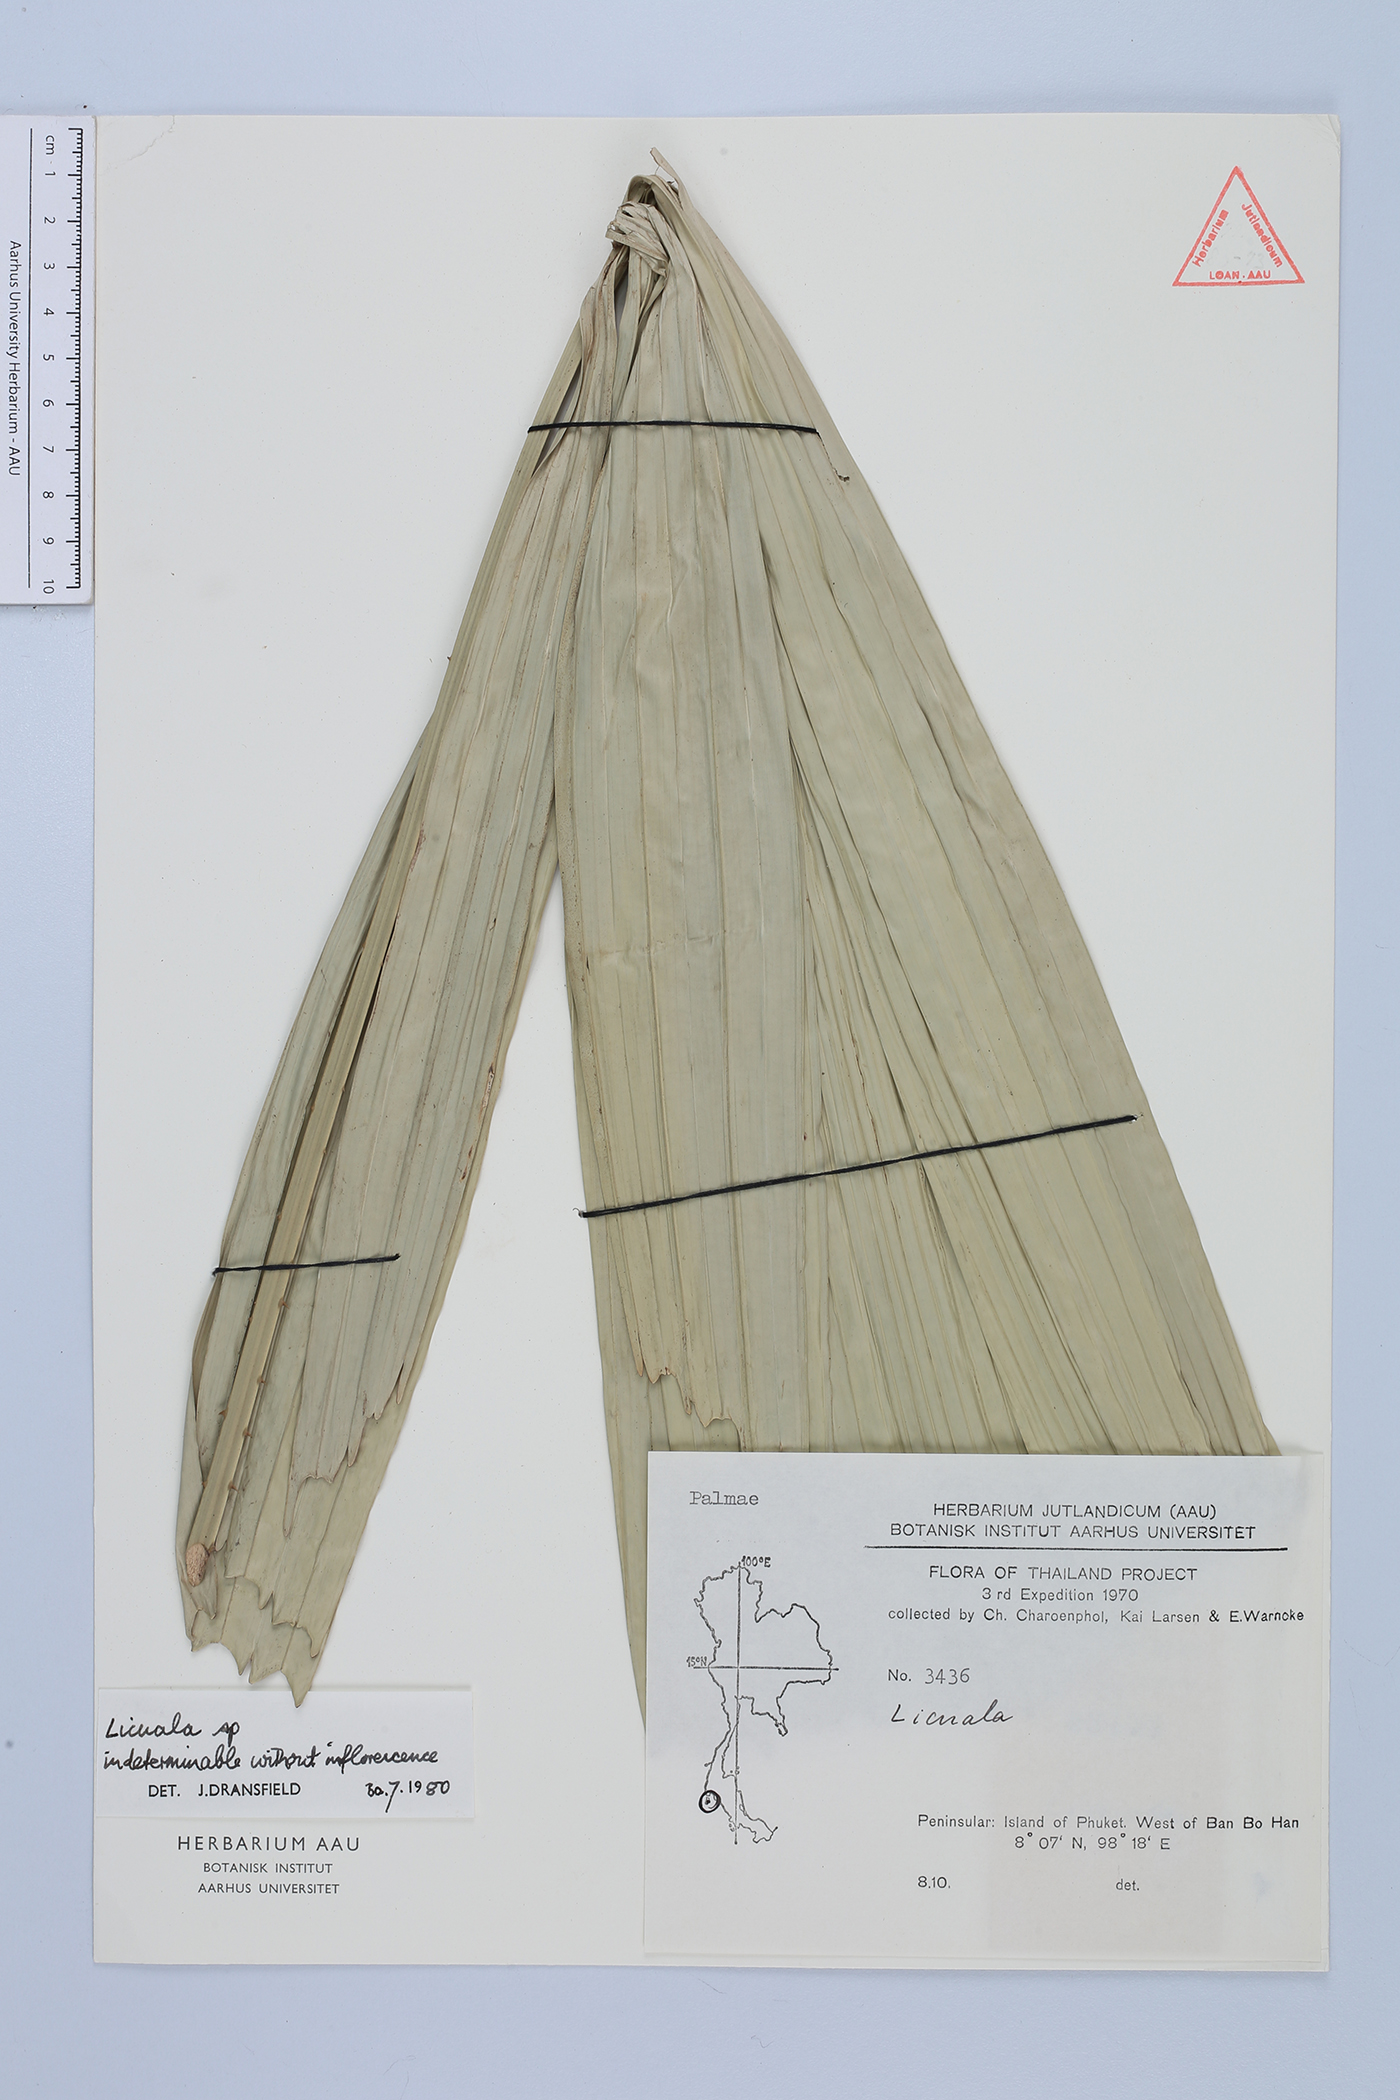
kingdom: Plantae
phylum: Tracheophyta
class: Liliopsida
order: Arecales
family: Arecaceae
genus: Licuala
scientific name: Licuala
